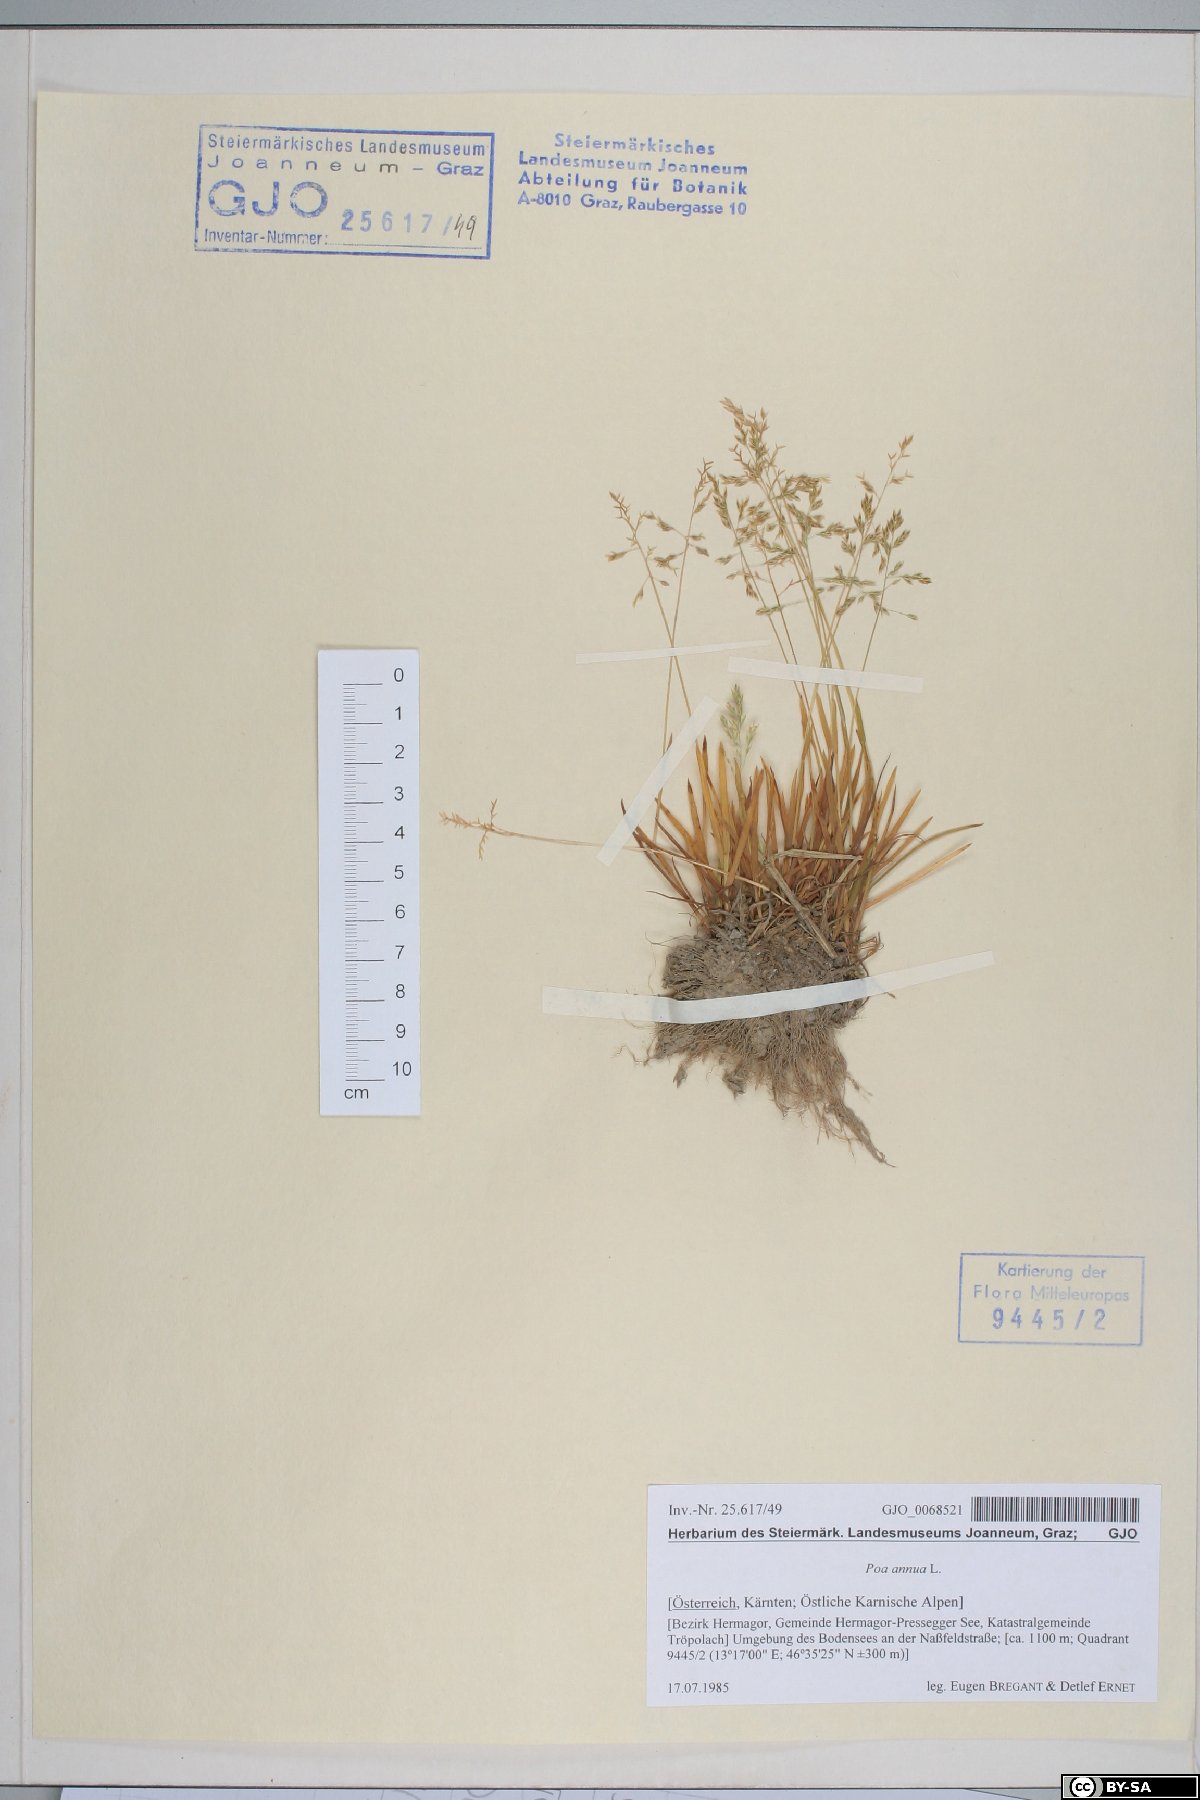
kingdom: Plantae
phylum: Tracheophyta
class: Liliopsida
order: Poales
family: Poaceae
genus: Poa
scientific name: Poa annua
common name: Annual bluegrass
